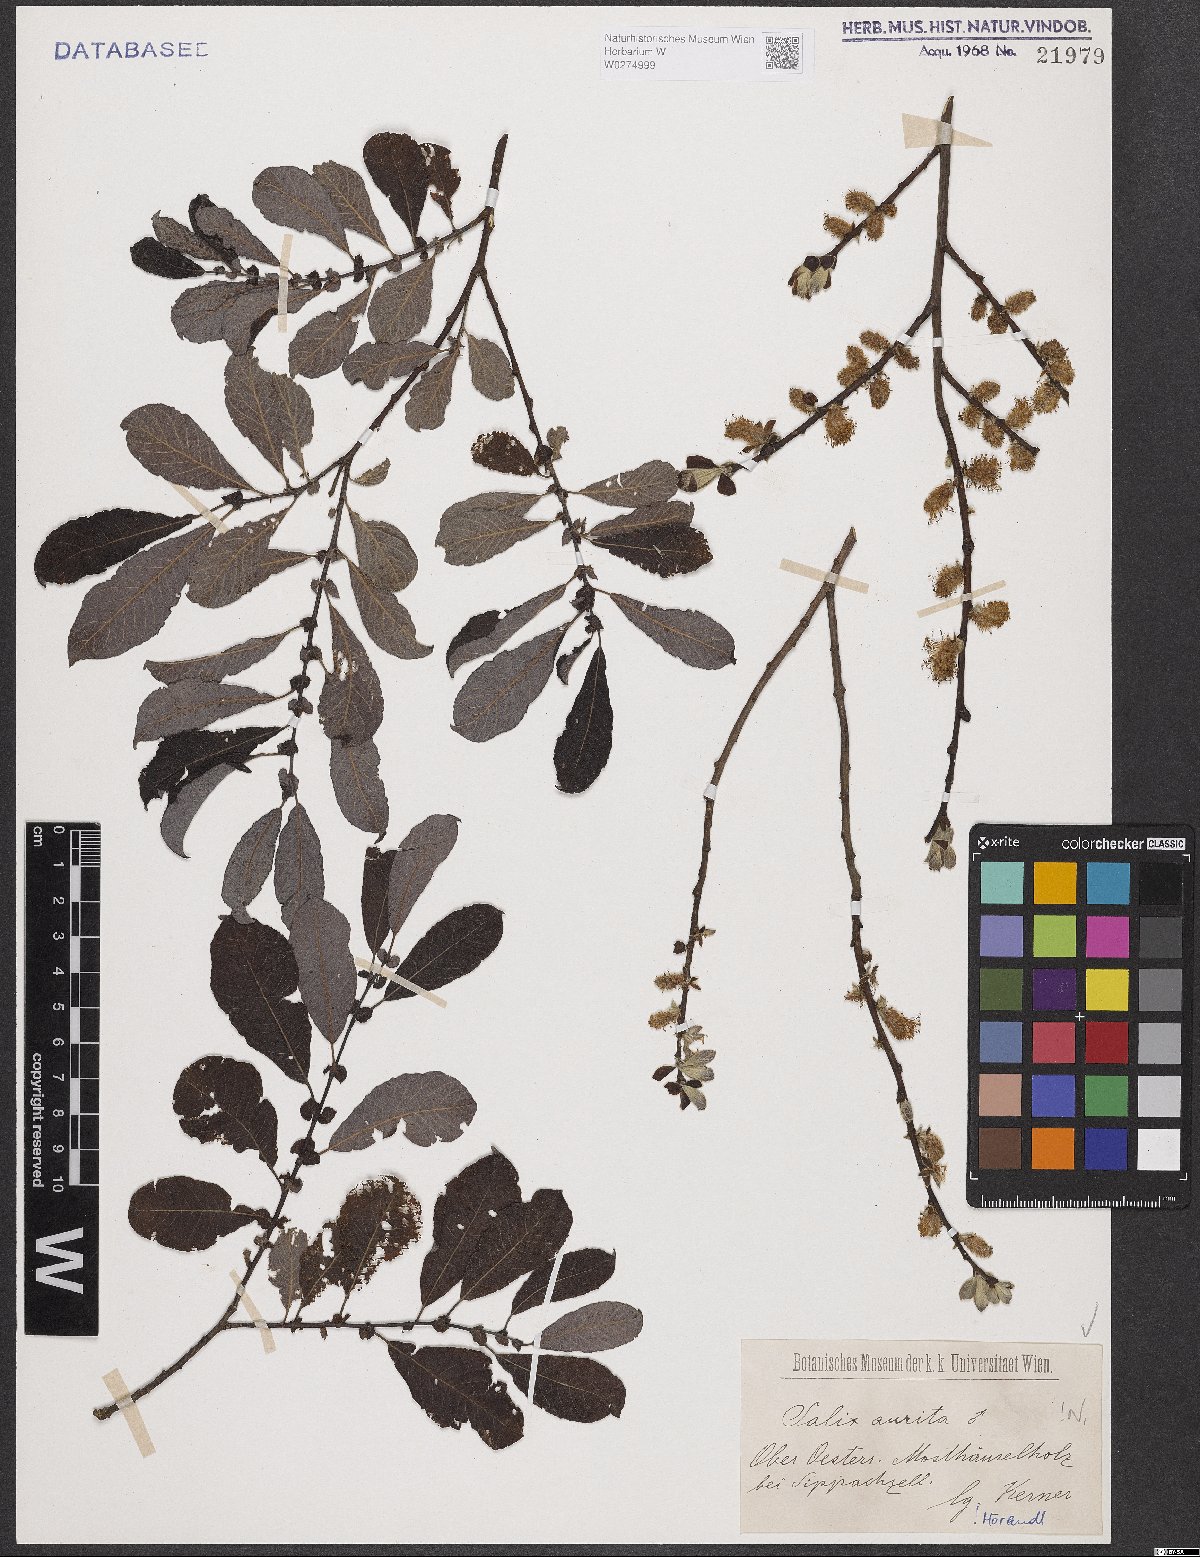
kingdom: Plantae
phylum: Tracheophyta
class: Magnoliopsida
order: Malpighiales
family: Salicaceae
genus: Salix
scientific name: Salix aurita
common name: Eared willow
